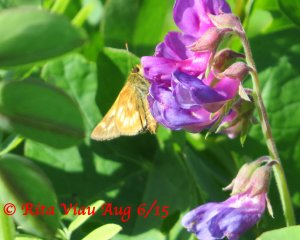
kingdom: Animalia
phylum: Arthropoda
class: Insecta
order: Lepidoptera
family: Hesperiidae
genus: Polites
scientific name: Polites
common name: Long Dash Skipper
